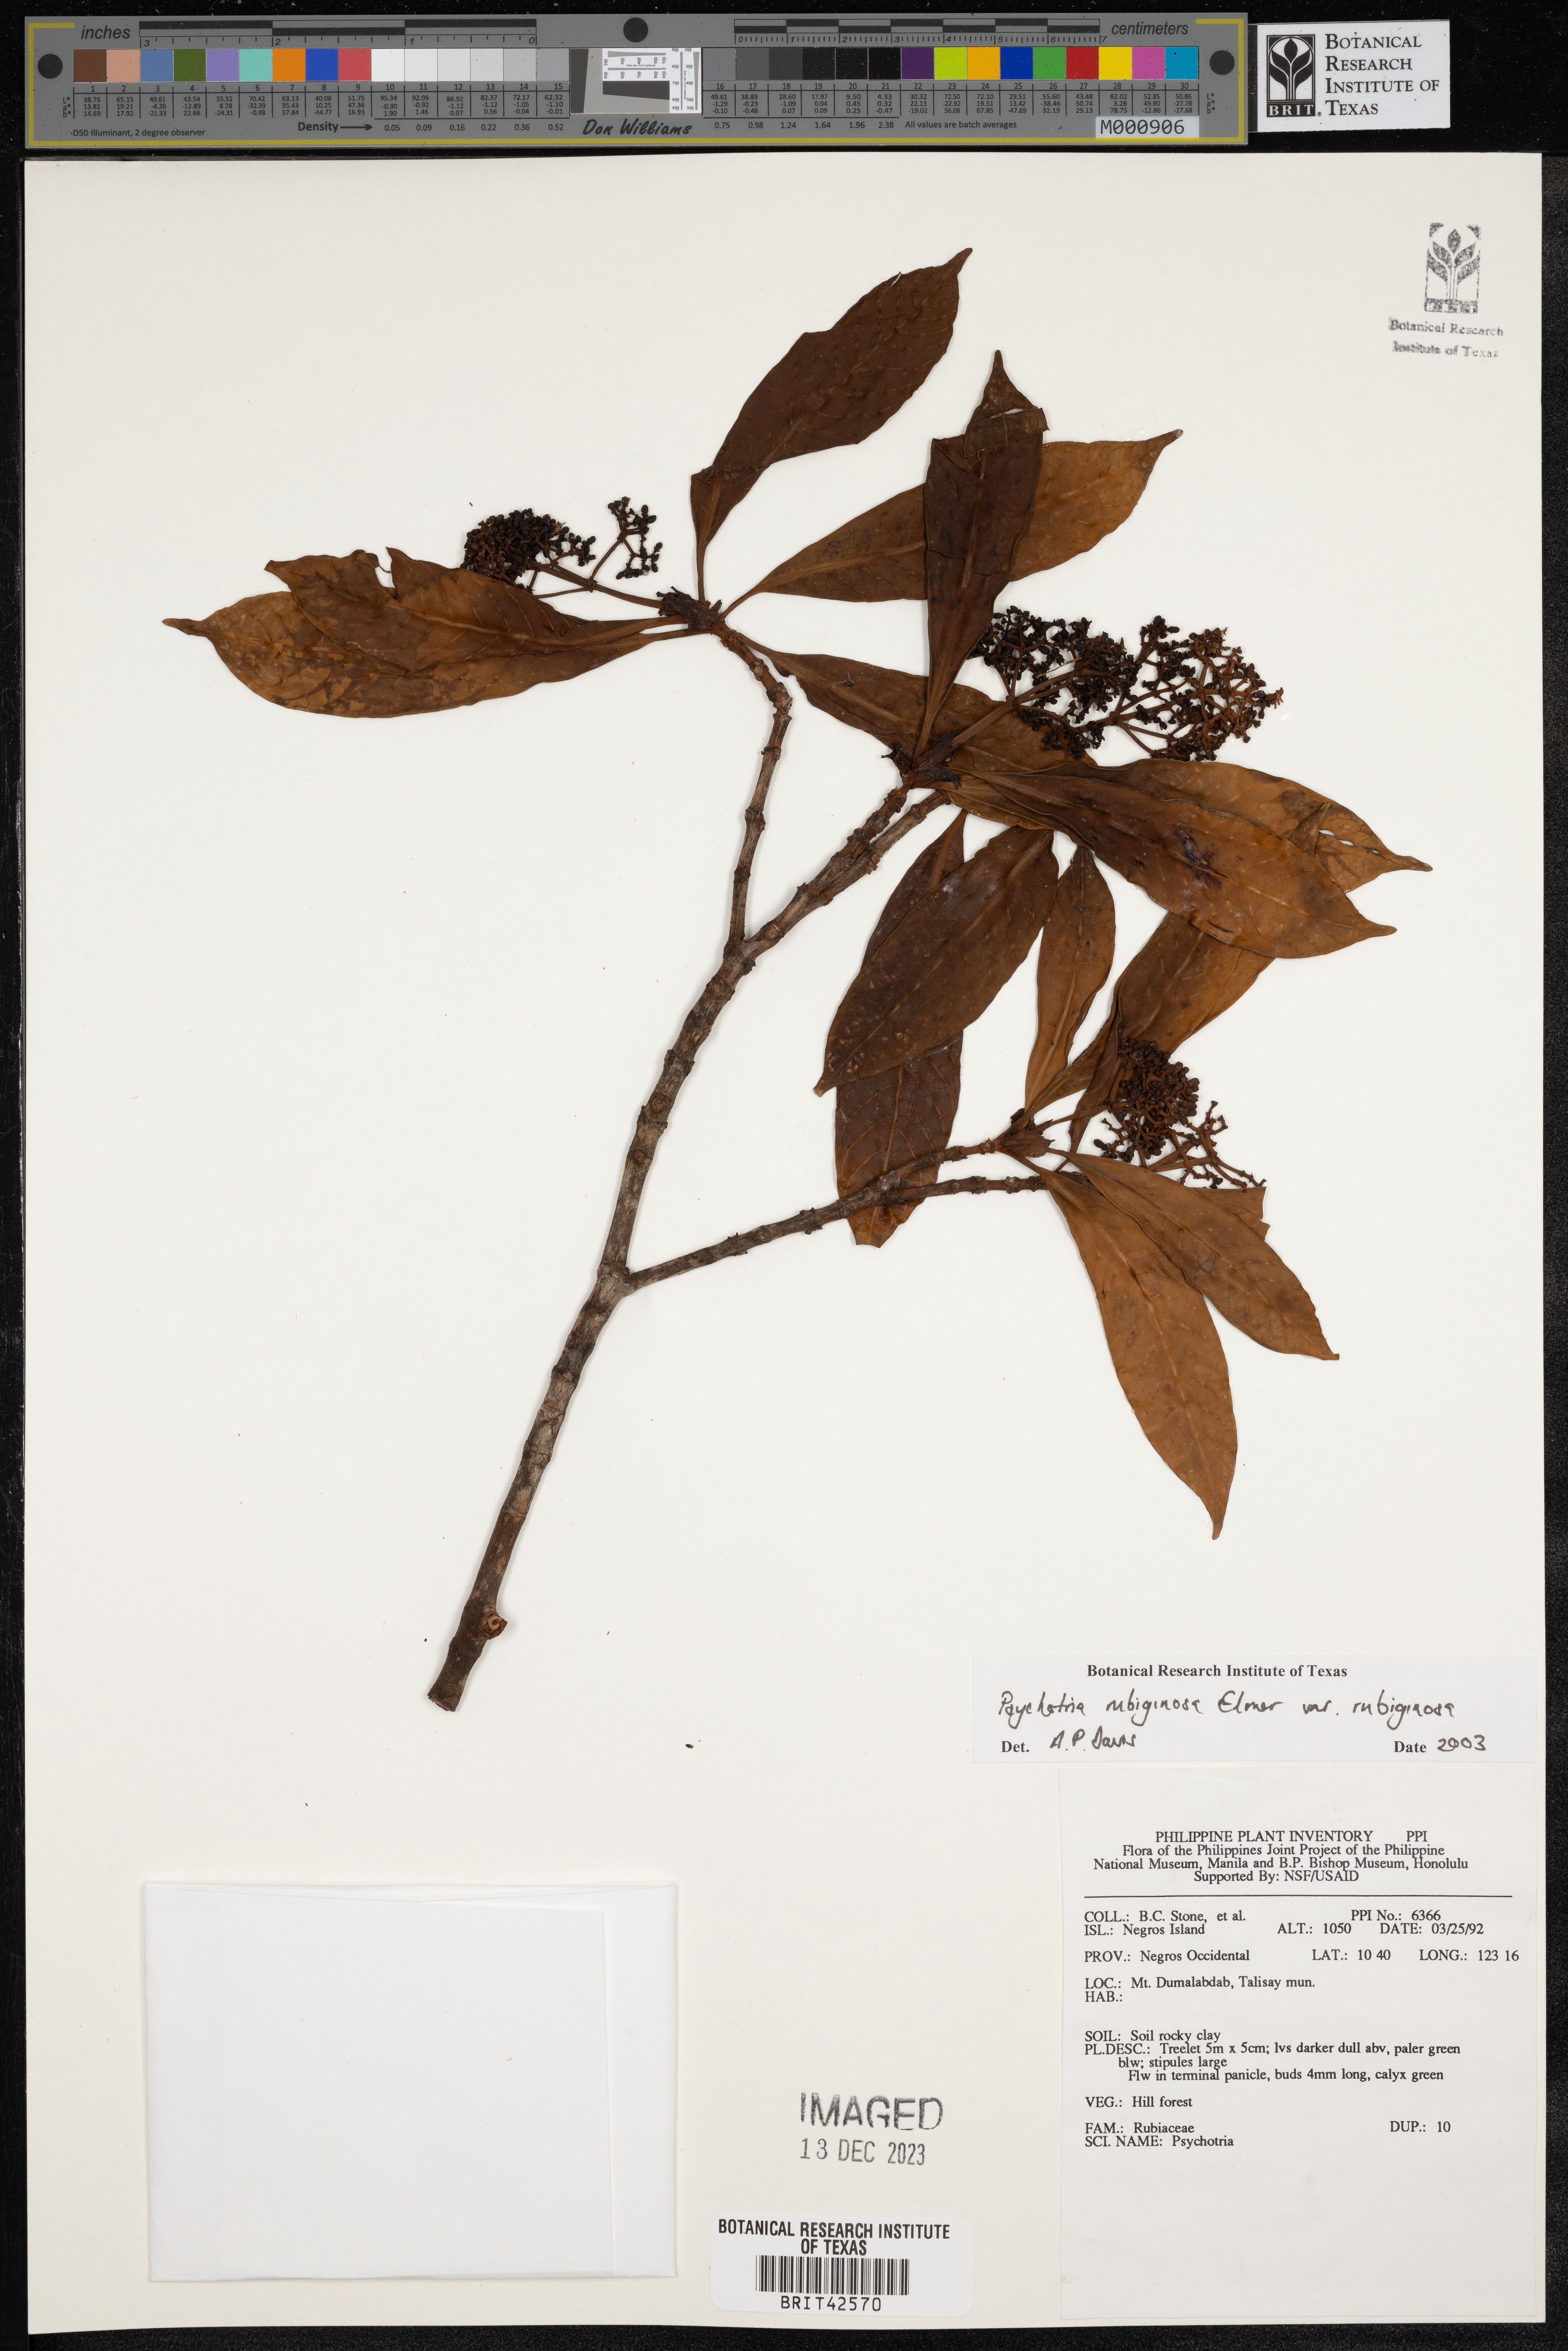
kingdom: Plantae
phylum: Tracheophyta
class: Magnoliopsida
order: Gentianales
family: Rubiaceae
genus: Psychotria
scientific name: Psychotria rubiginosa
